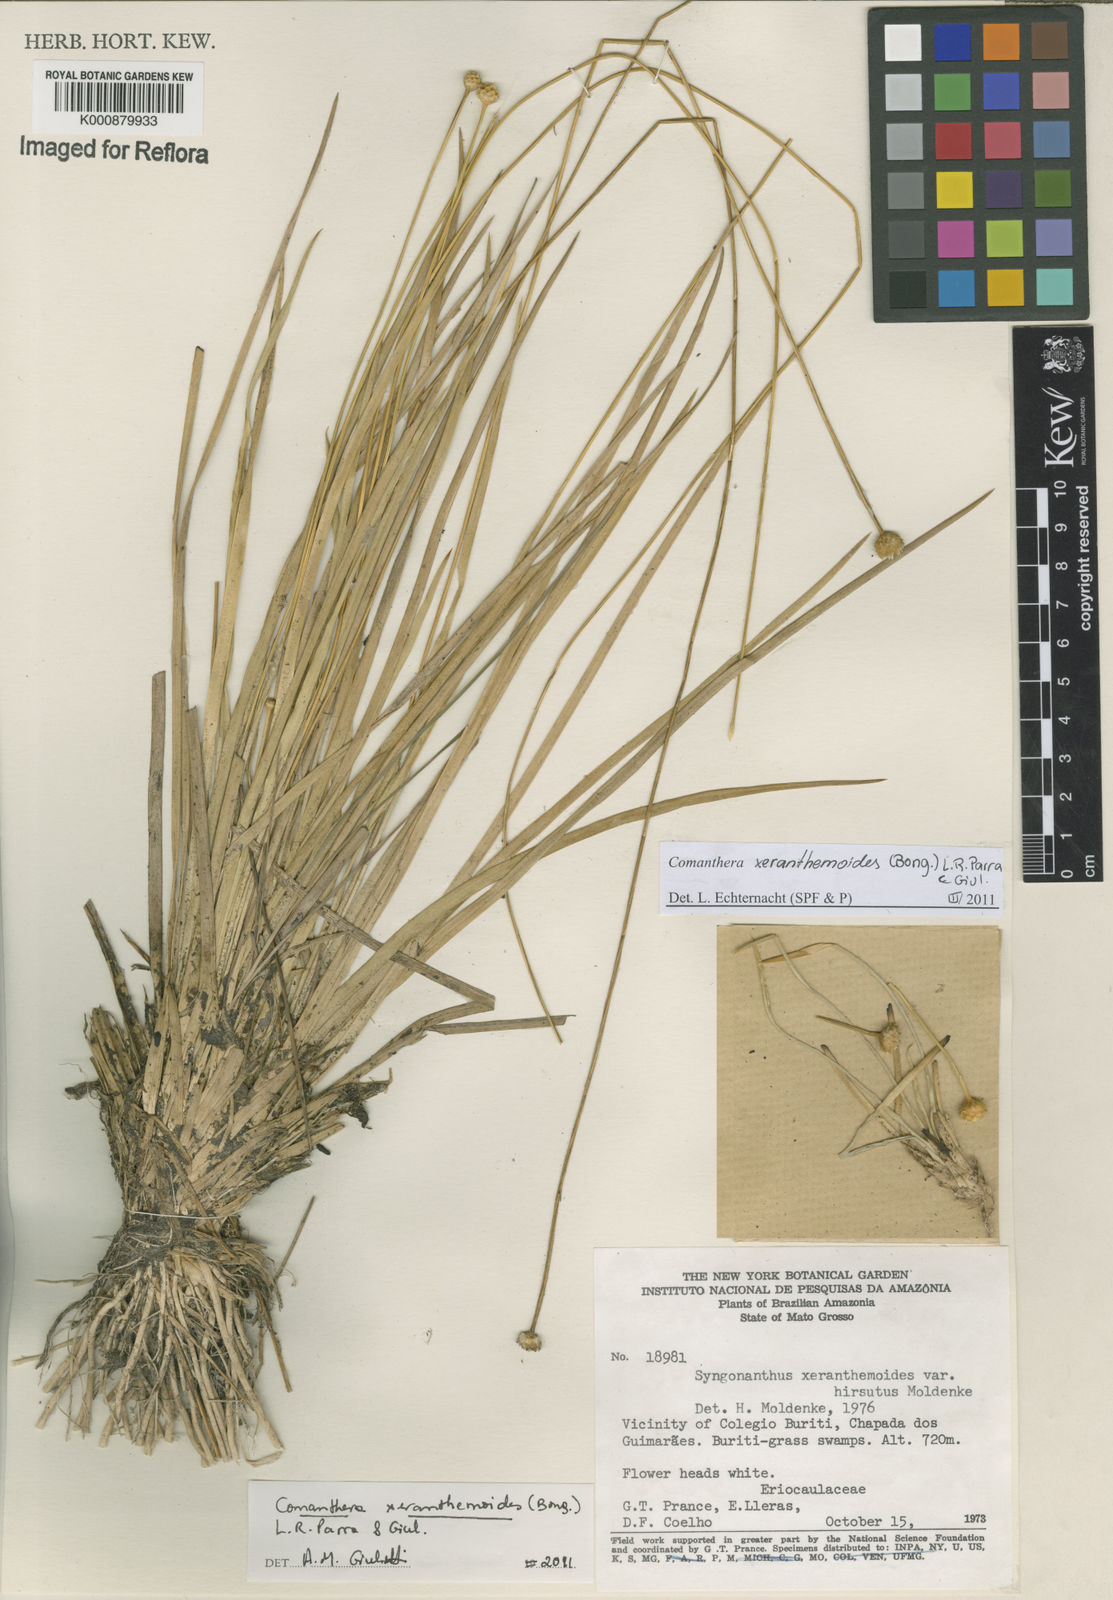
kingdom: Plantae
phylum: Tracheophyta
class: Liliopsida
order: Poales
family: Eriocaulaceae
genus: Comanthera
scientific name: Comanthera
